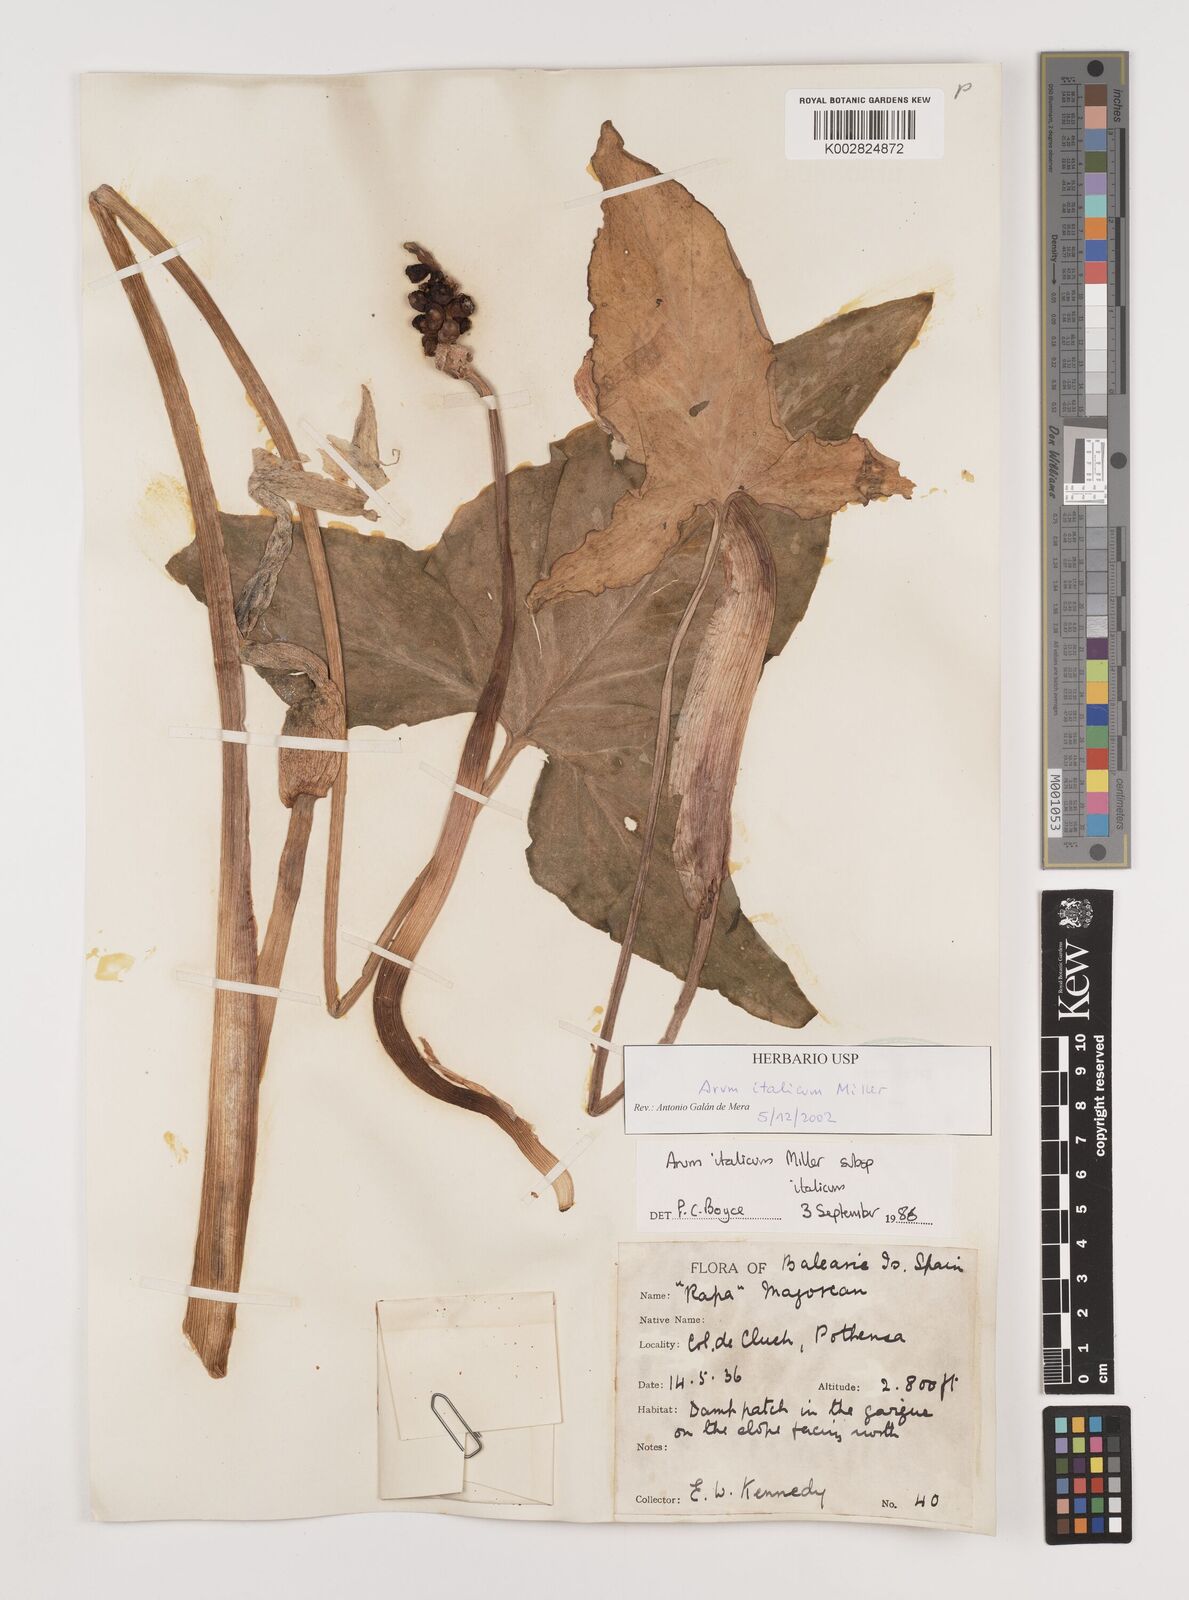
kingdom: Plantae
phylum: Tracheophyta
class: Liliopsida
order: Alismatales
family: Araceae
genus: Arum
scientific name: Arum italicum
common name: Italian lords-and-ladies
